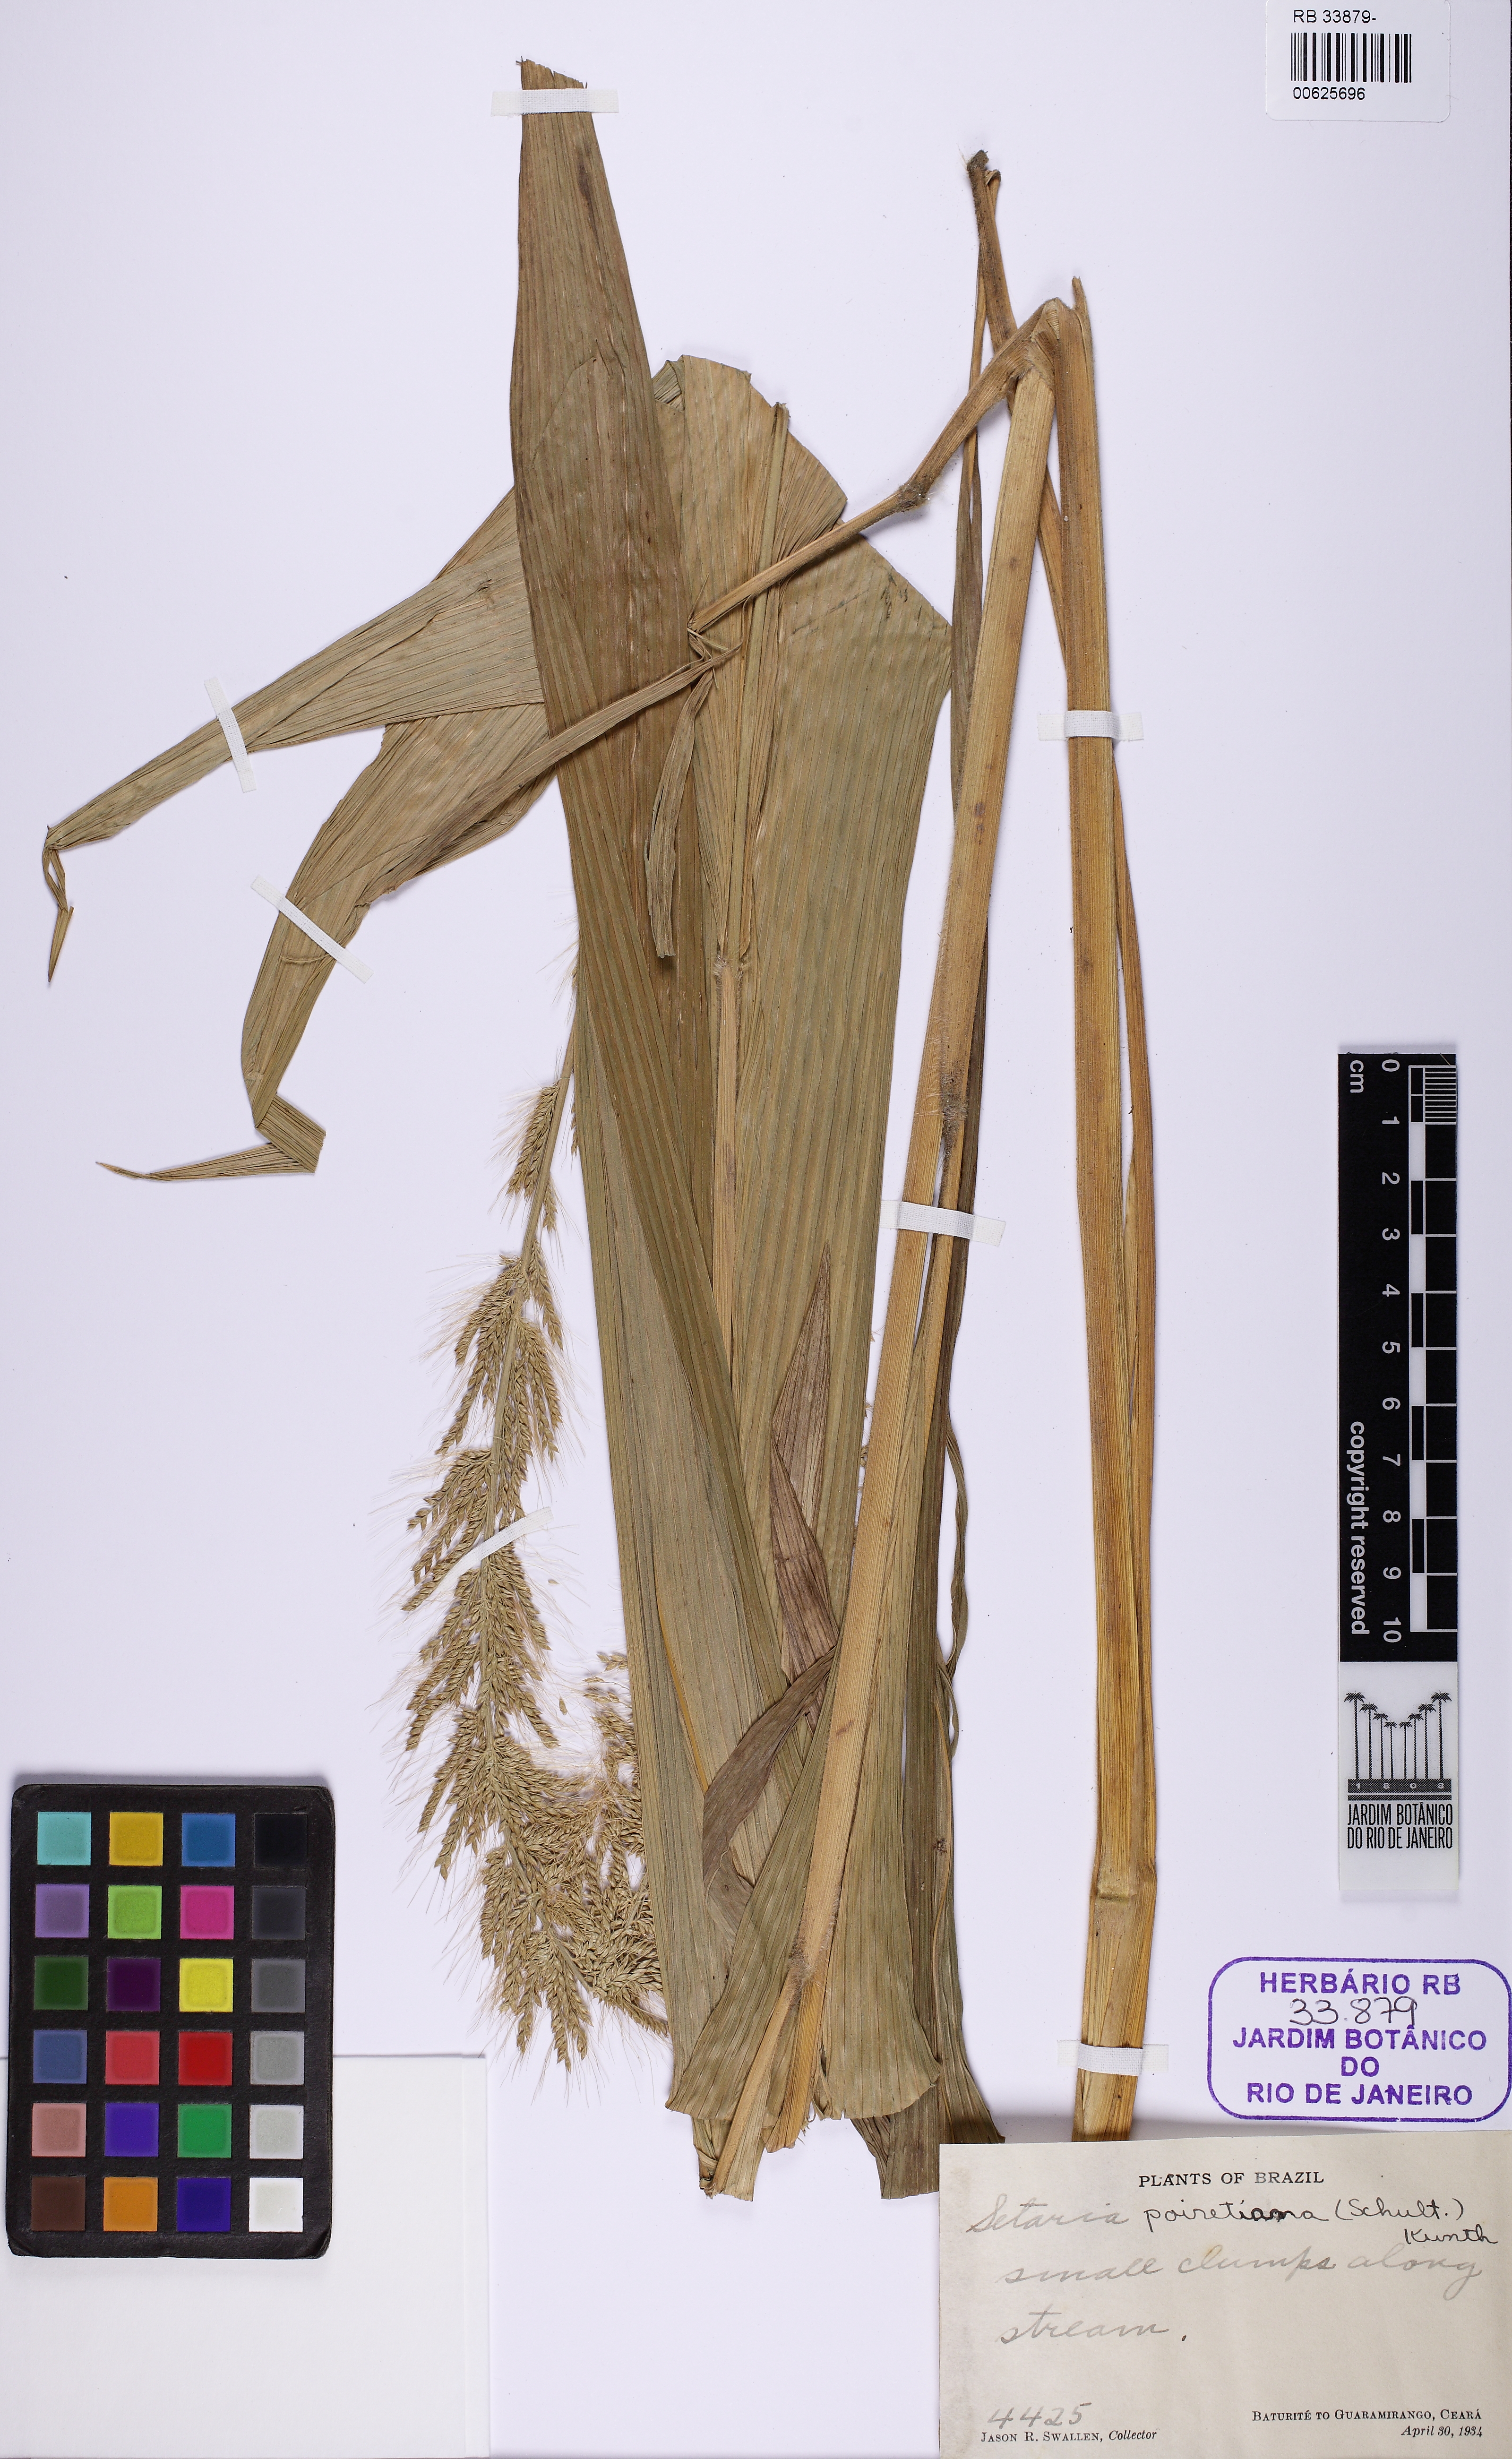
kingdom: Plantae
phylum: Tracheophyta
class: Liliopsida
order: Poales
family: Poaceae
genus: Setaria
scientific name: Setaria poiretiana
